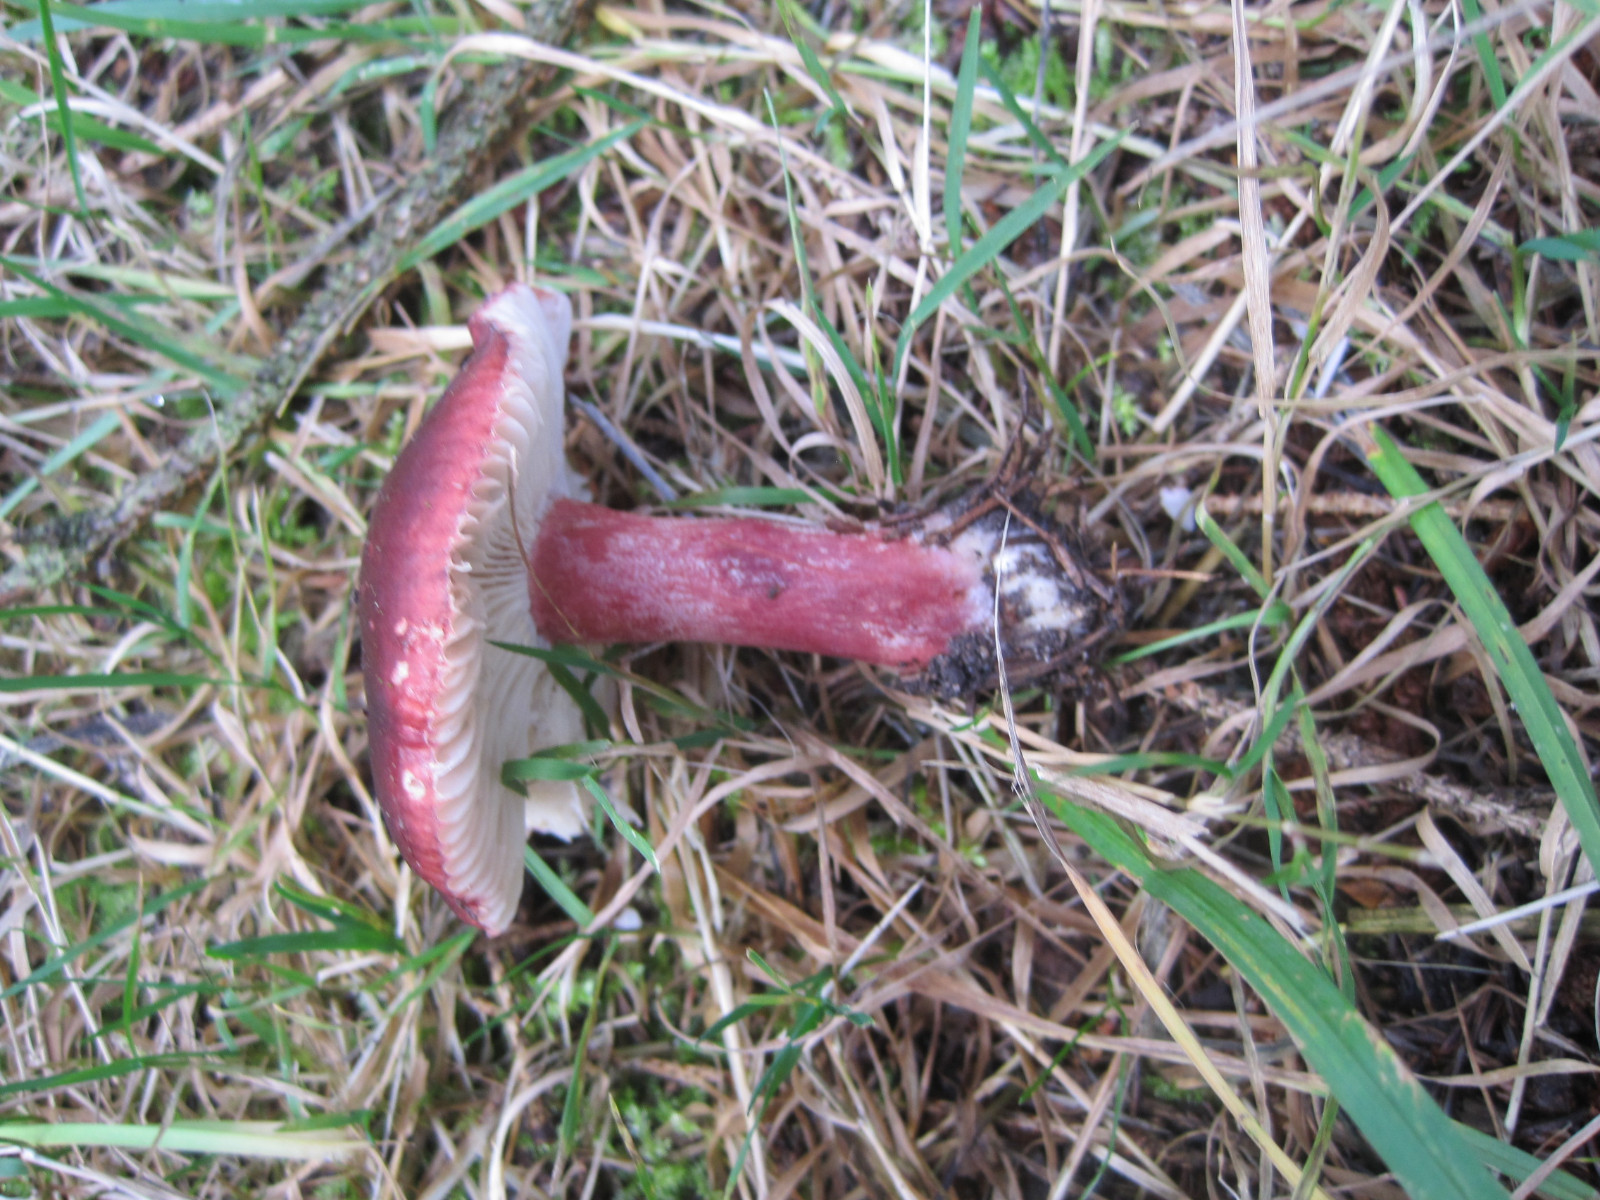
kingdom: Fungi
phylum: Basidiomycota
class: Agaricomycetes
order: Russulales
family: Russulaceae
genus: Russula
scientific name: Russula queletii
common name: Quélets skørhat
